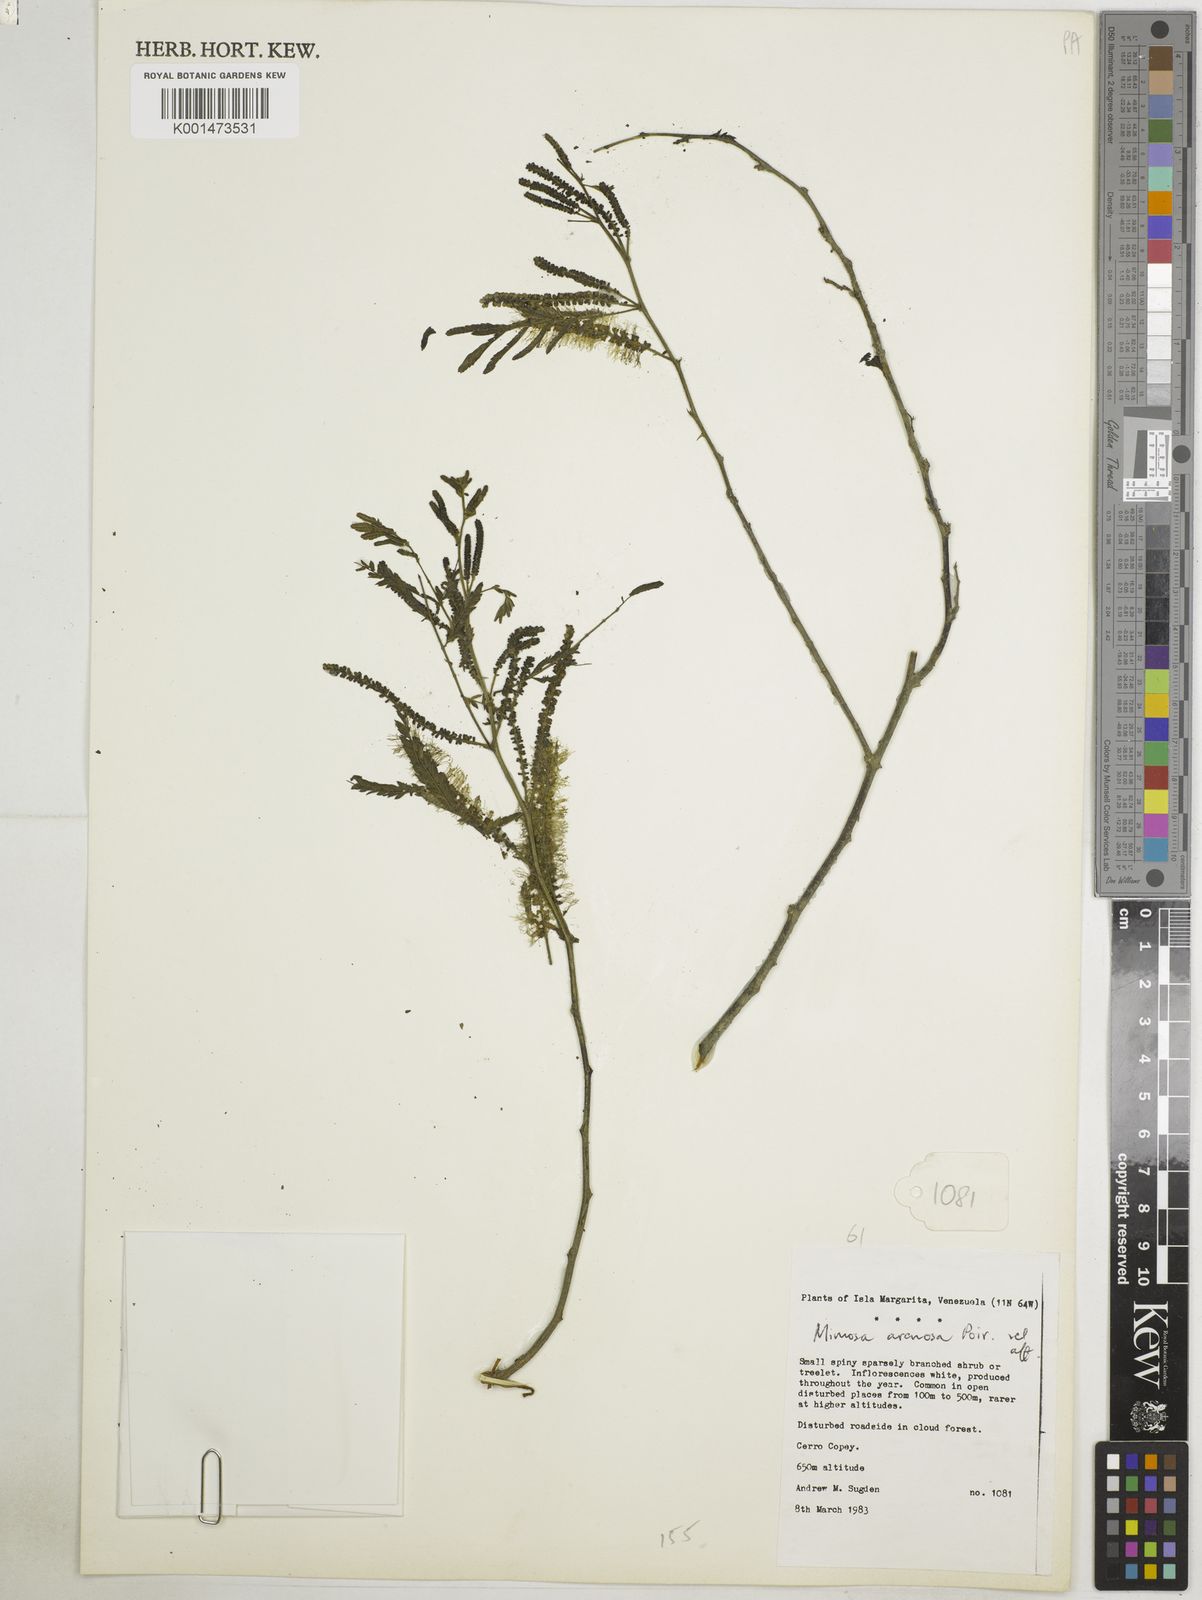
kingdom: Plantae
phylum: Tracheophyta
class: Magnoliopsida
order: Fabales
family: Fabaceae
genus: Mimosa
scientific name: Mimosa arenosa
